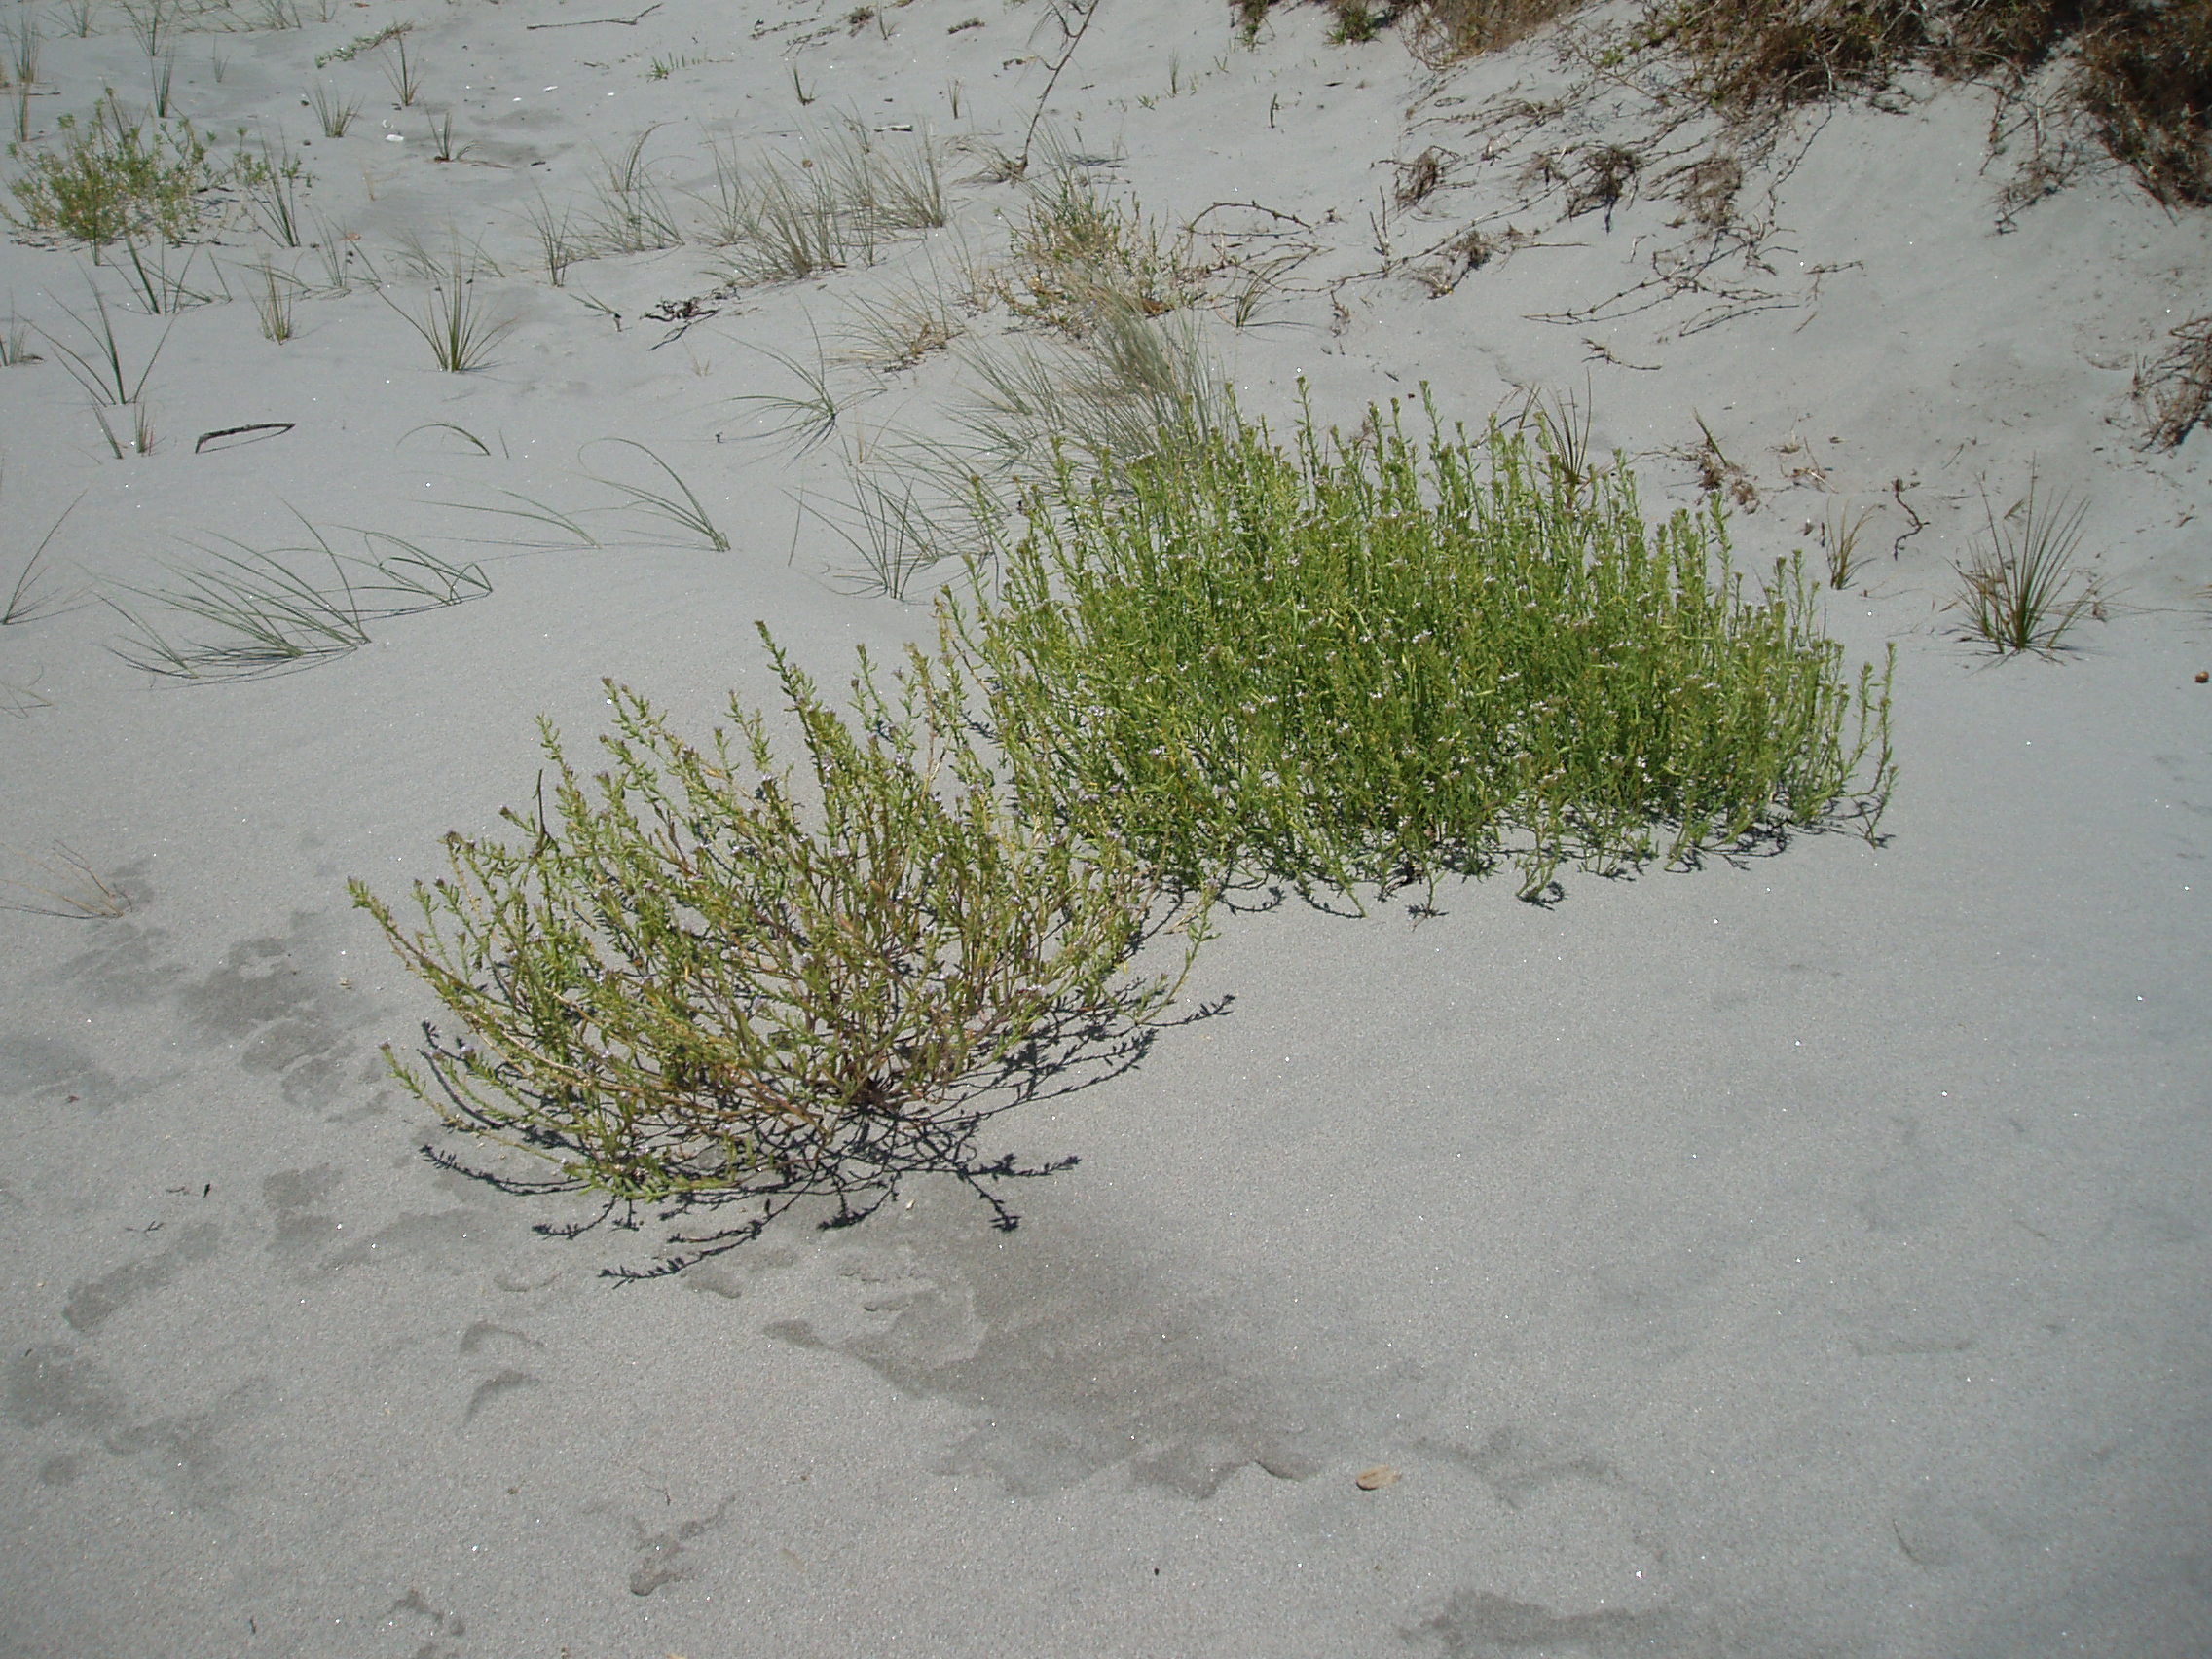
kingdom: Plantae
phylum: Tracheophyta
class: Magnoliopsida
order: Brassicales
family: Brassicaceae
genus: Cakile
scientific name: Cakile maritima
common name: Sea rocket
